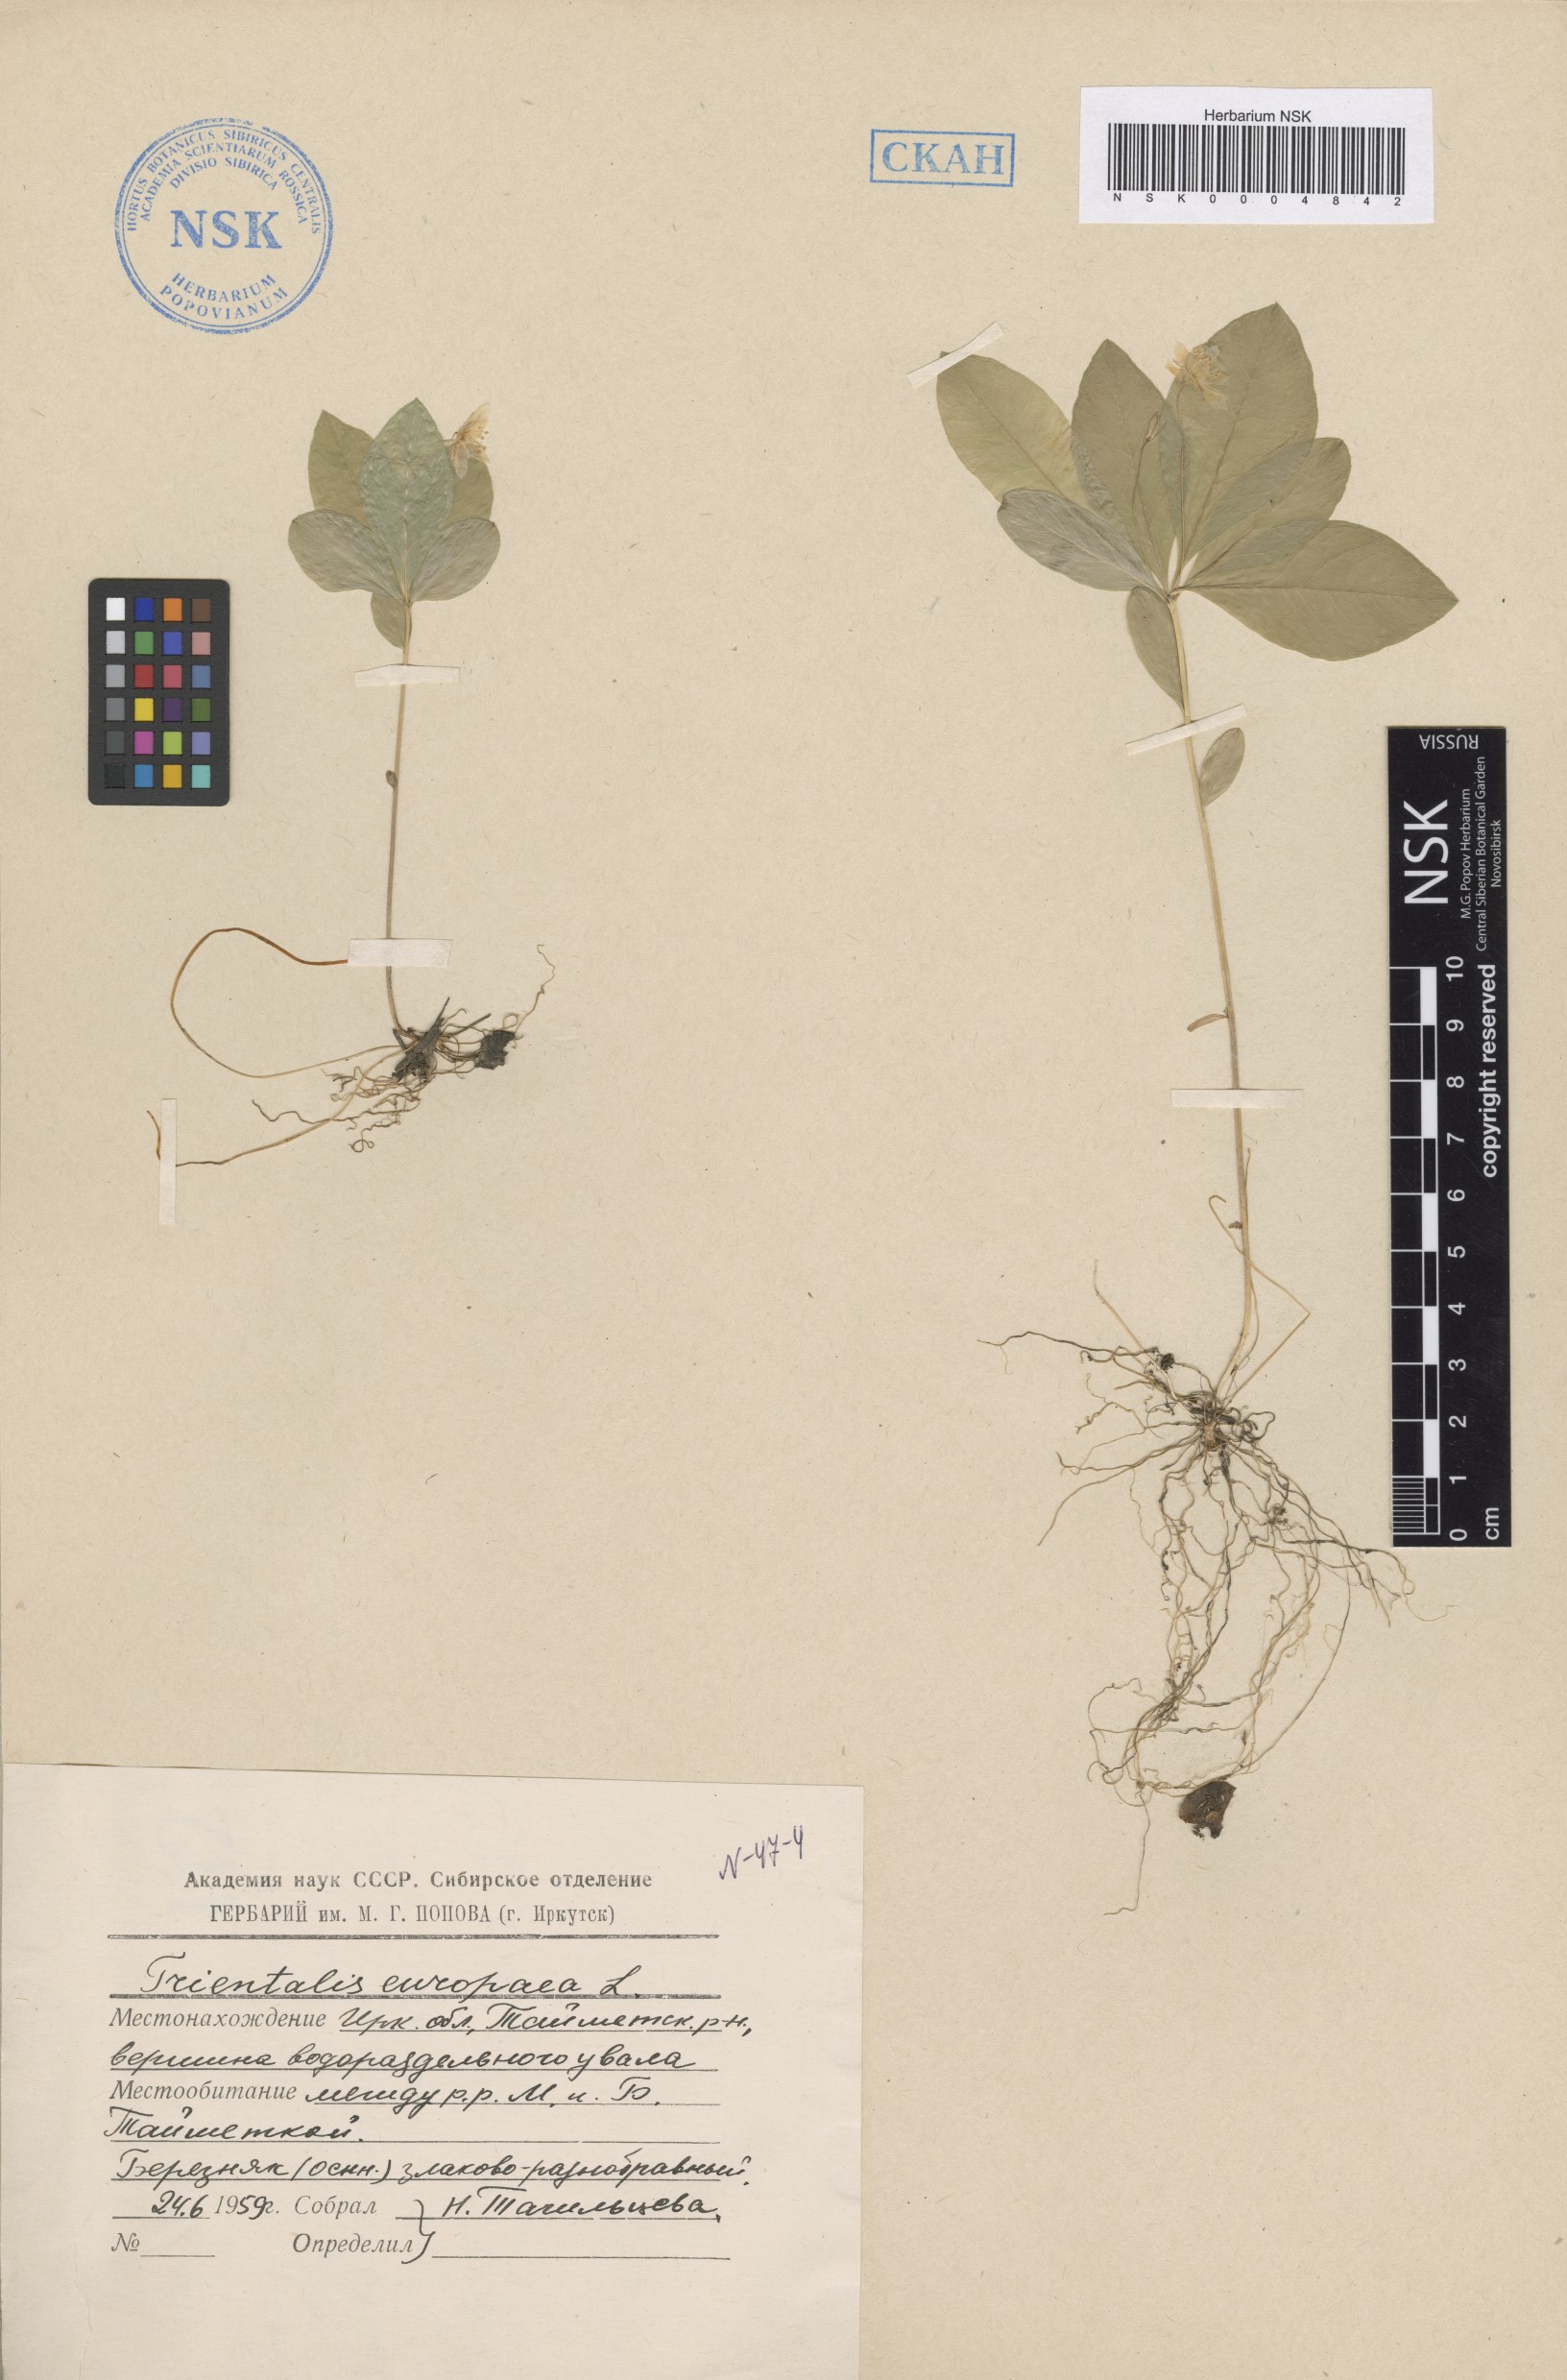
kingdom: Plantae
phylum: Tracheophyta
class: Magnoliopsida
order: Ericales
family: Primulaceae
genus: Lysimachia
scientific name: Lysimachia europaea
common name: Arctic starflower
